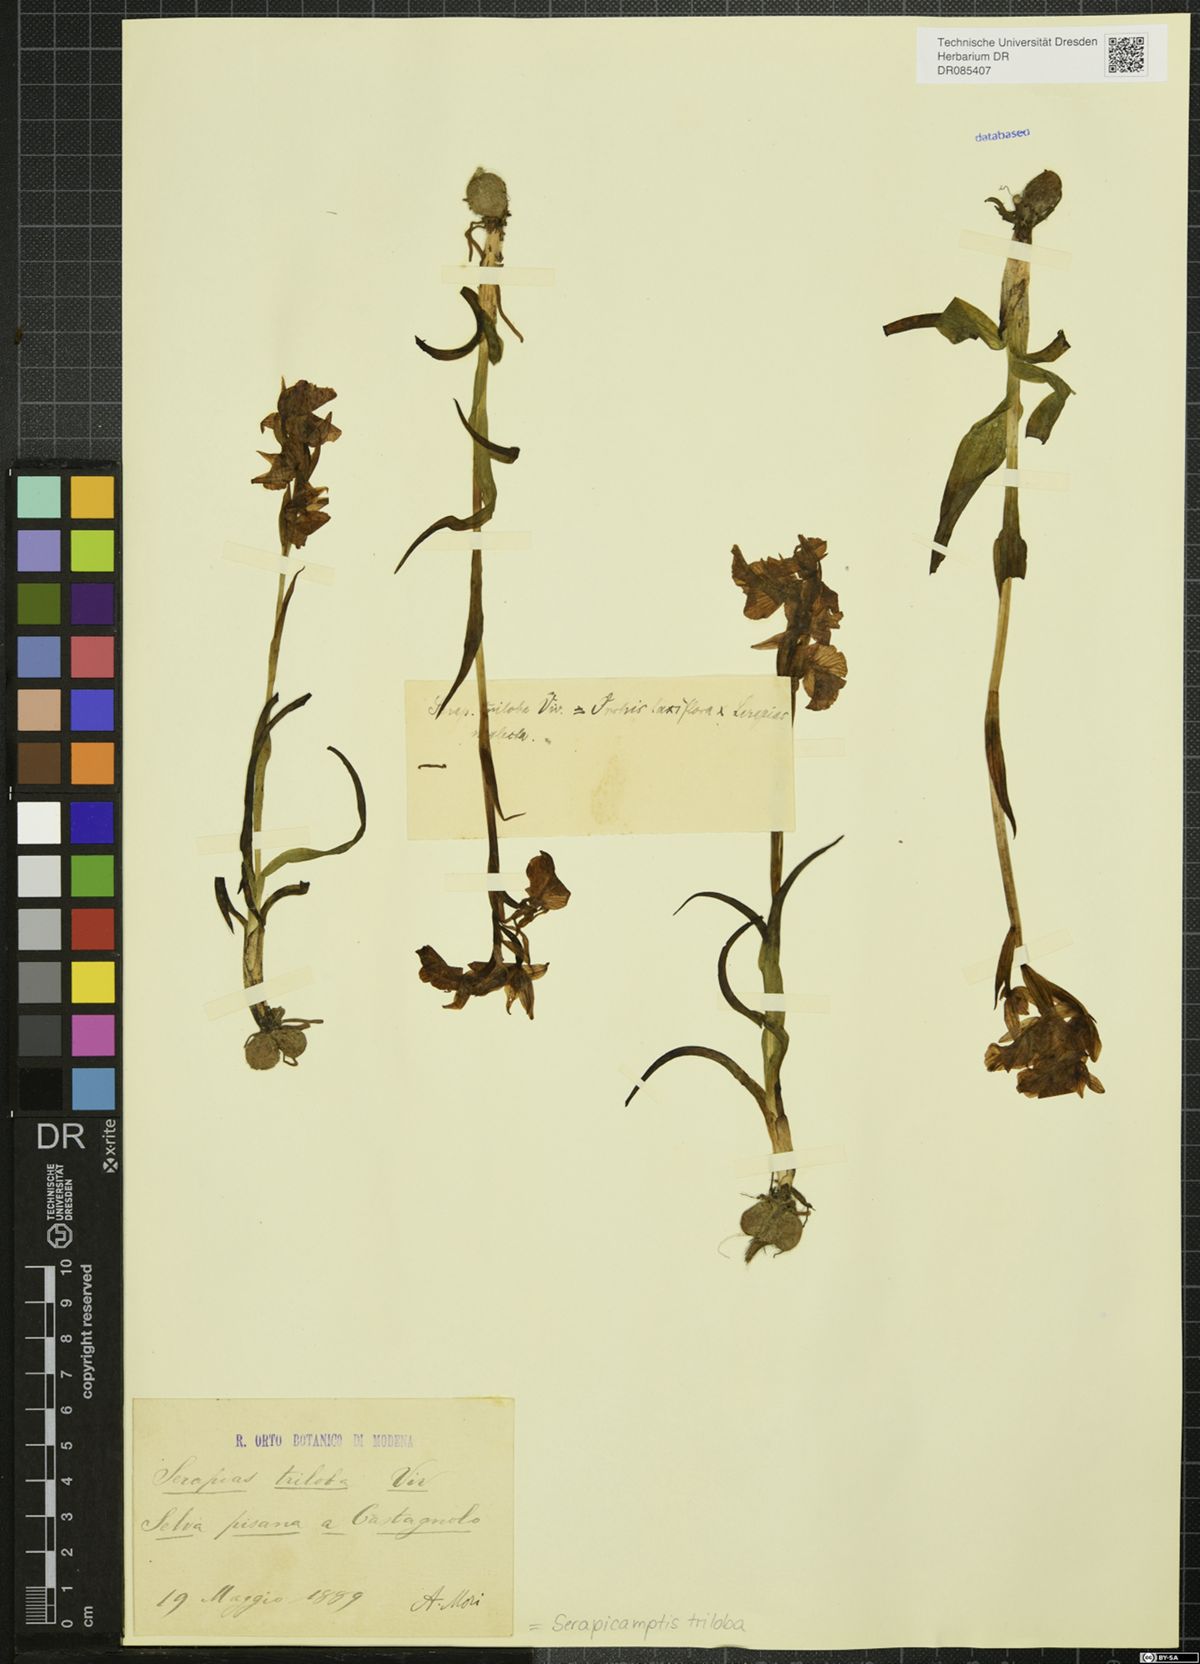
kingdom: Plantae
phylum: Tracheophyta
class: Liliopsida
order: Asparagales
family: Orchidaceae
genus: Serapicamptis
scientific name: Serapicamptis triloba
